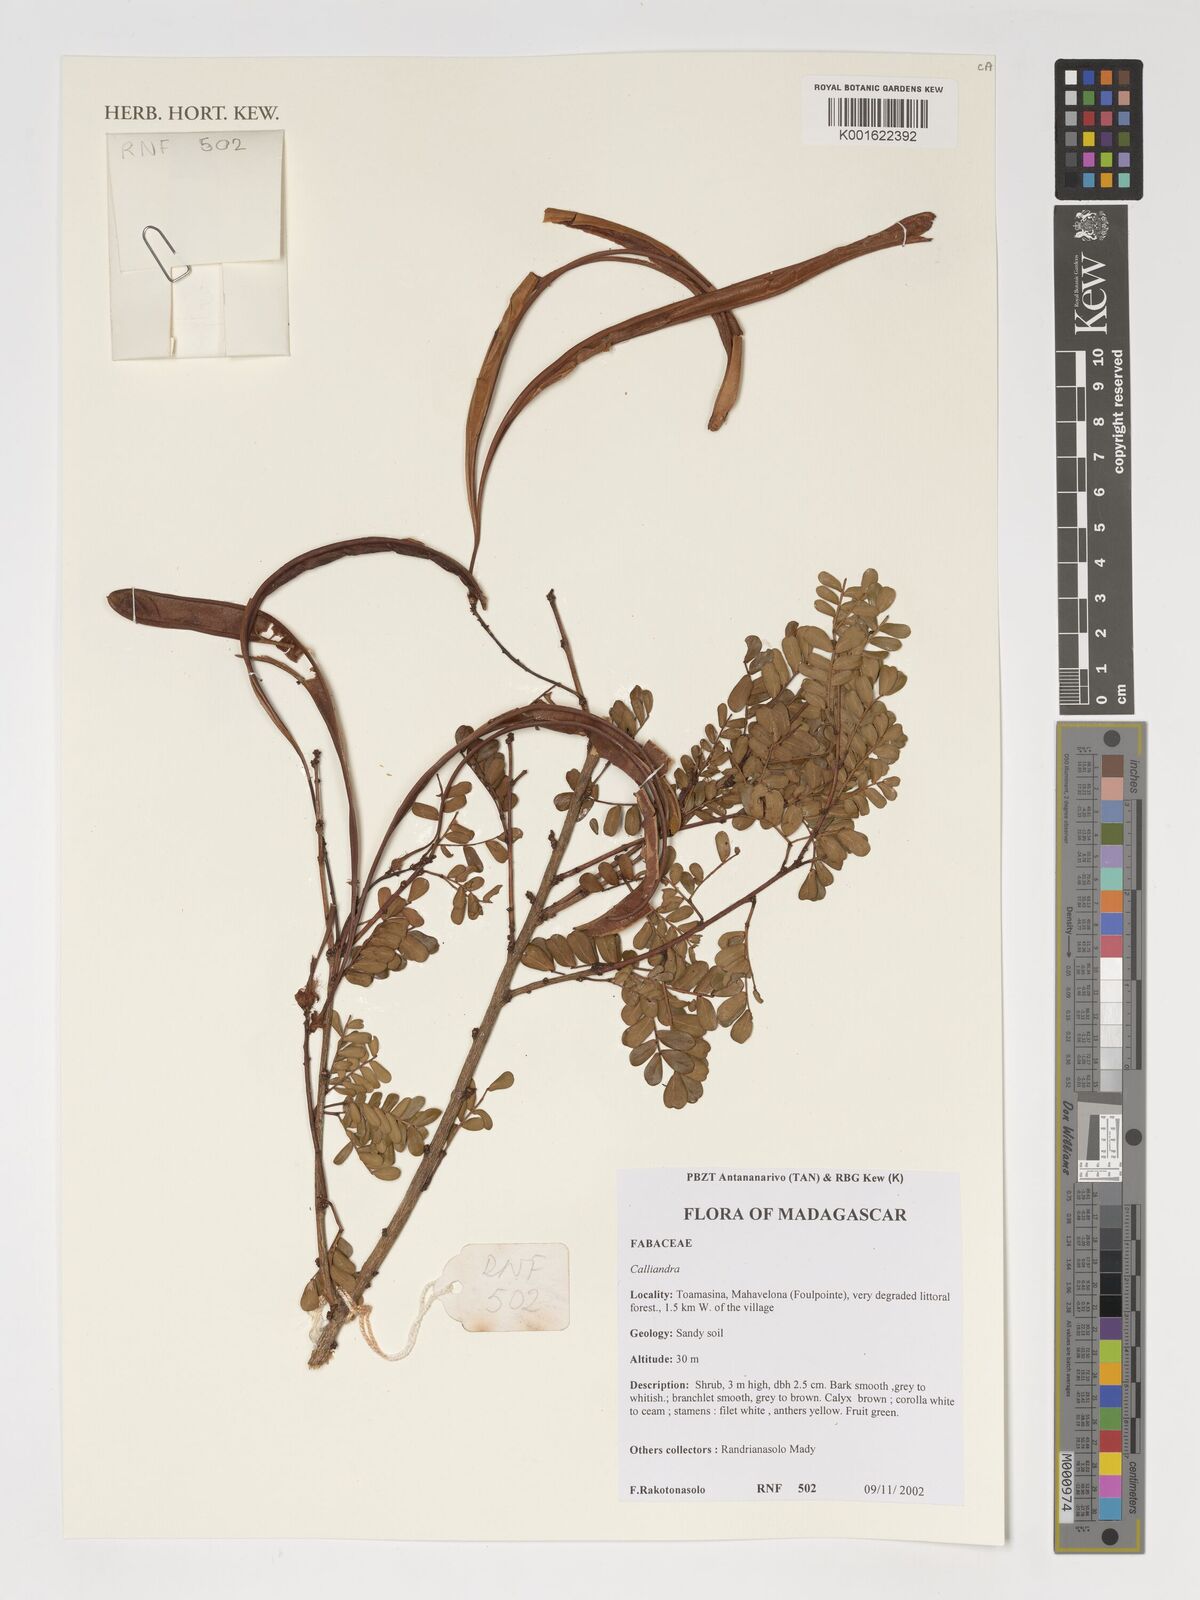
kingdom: Plantae
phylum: Tracheophyta
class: Magnoliopsida
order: Fabales
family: Fabaceae
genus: Calliandra
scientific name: Calliandra
